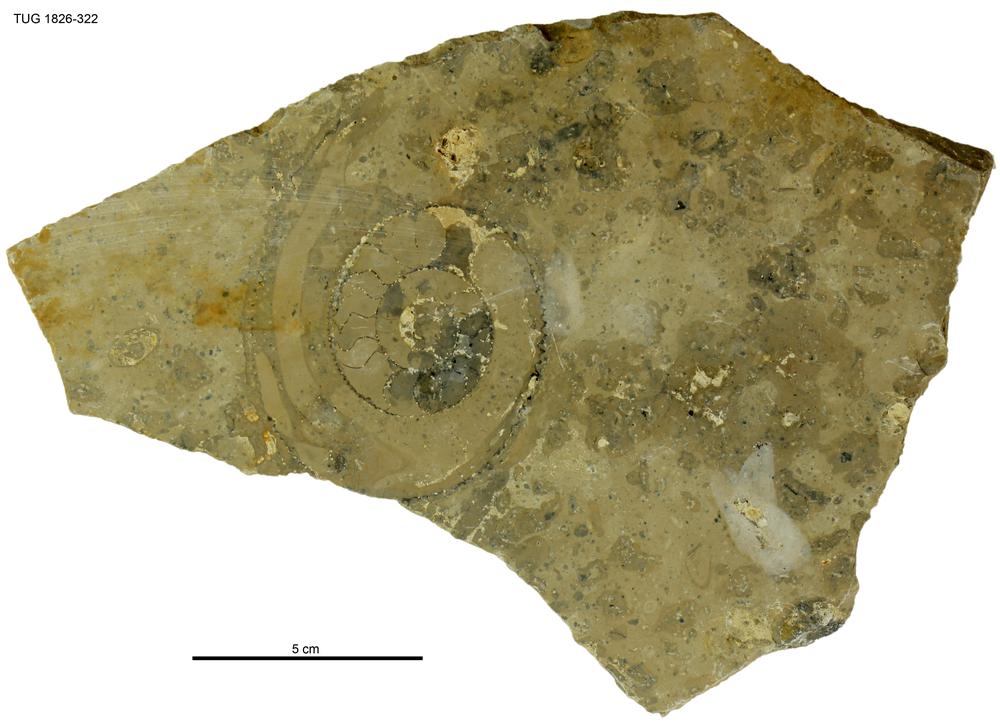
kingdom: Animalia
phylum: Mollusca
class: Cephalopoda
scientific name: Cephalopoda
